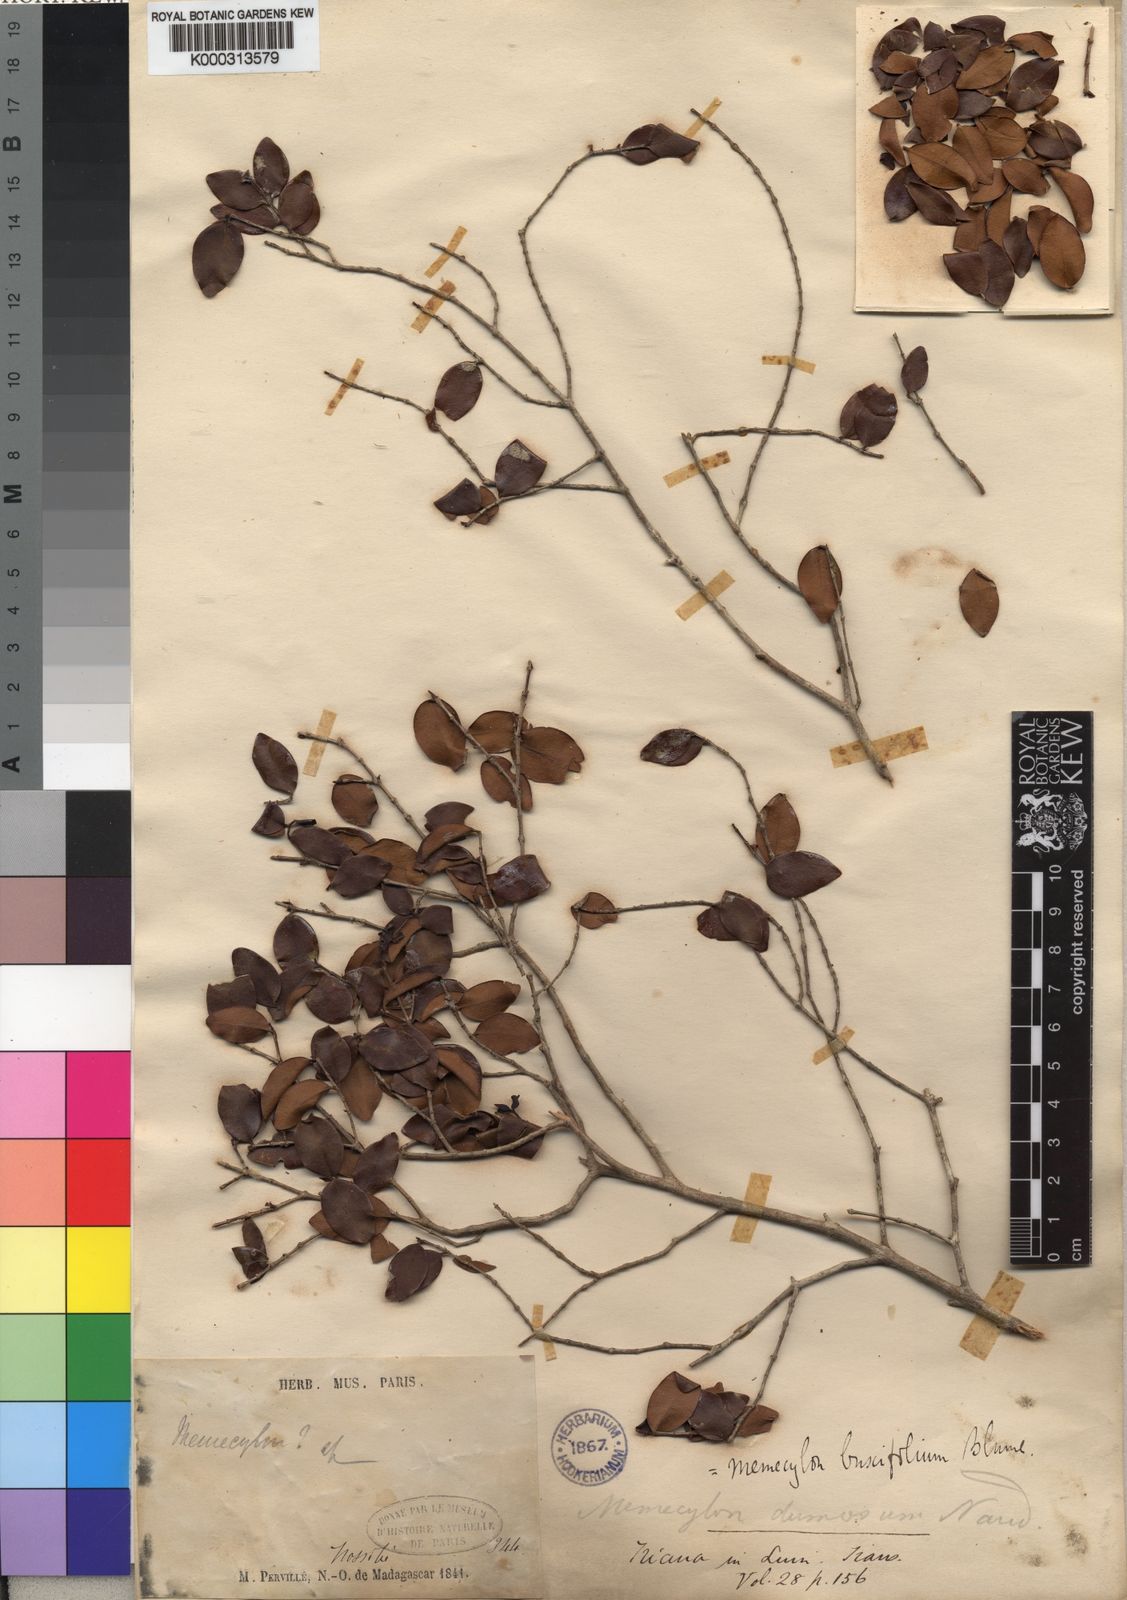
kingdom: Plantae
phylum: Tracheophyta
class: Magnoliopsida
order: Myrtales
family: Melastomataceae
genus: Memecylon
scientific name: Memecylon buxifolium
